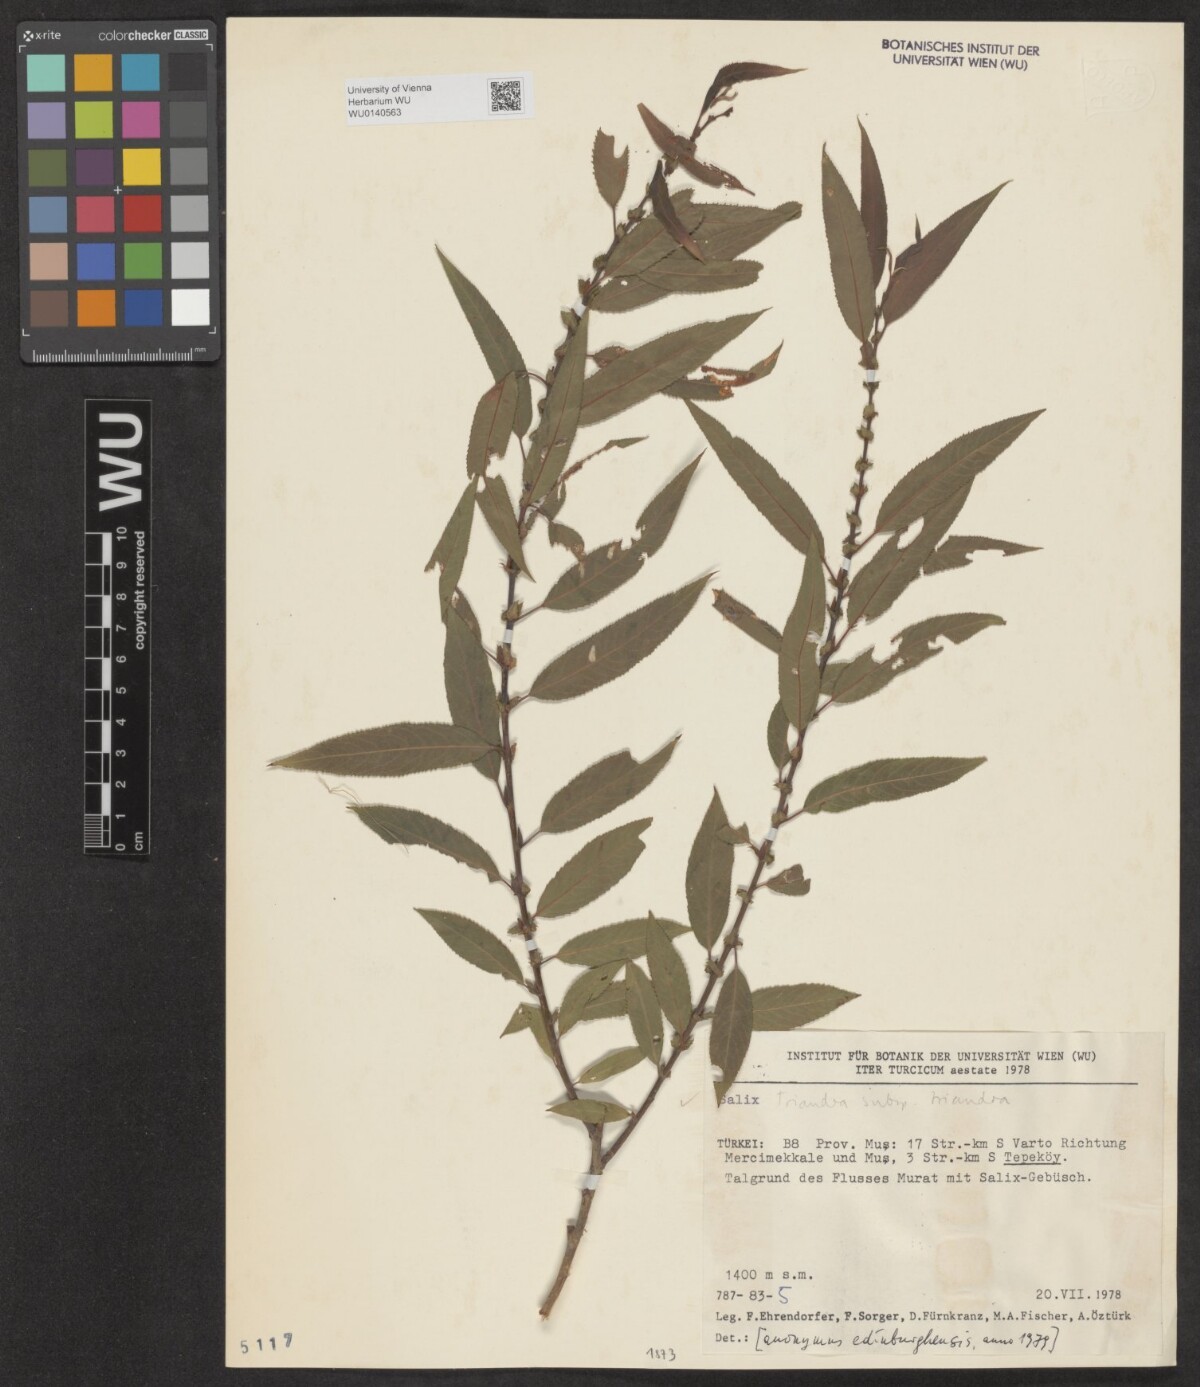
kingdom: Plantae
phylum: Tracheophyta
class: Magnoliopsida
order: Malpighiales
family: Salicaceae
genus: Salix
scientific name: Salix triandra
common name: Almond willow
